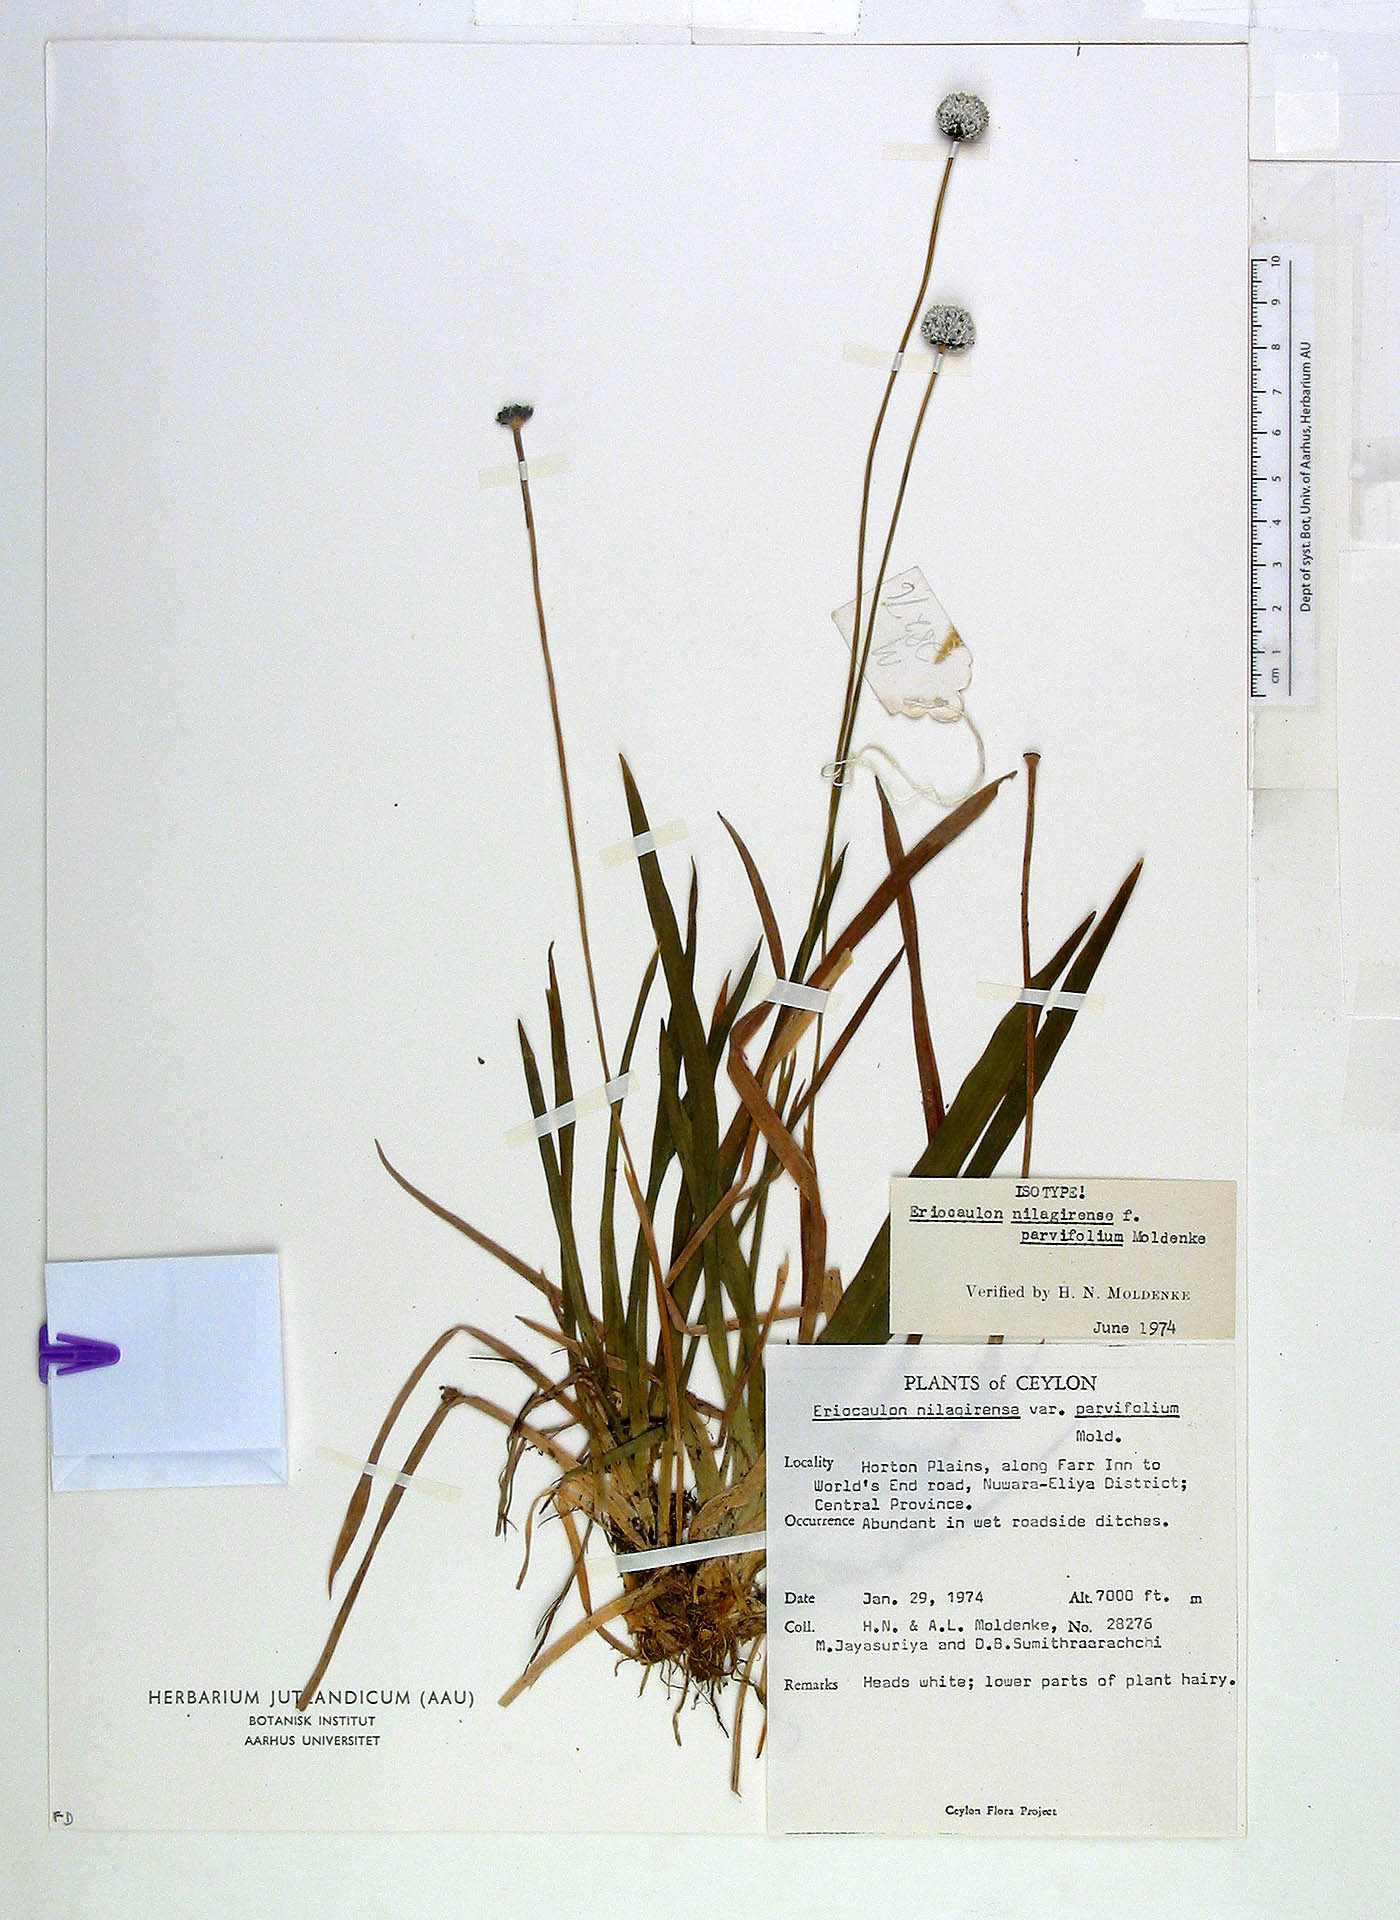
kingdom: Plantae
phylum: Tracheophyta
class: Liliopsida
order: Poales
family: Eriocaulaceae
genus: Eriocaulon
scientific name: Eriocaulon brownianum
